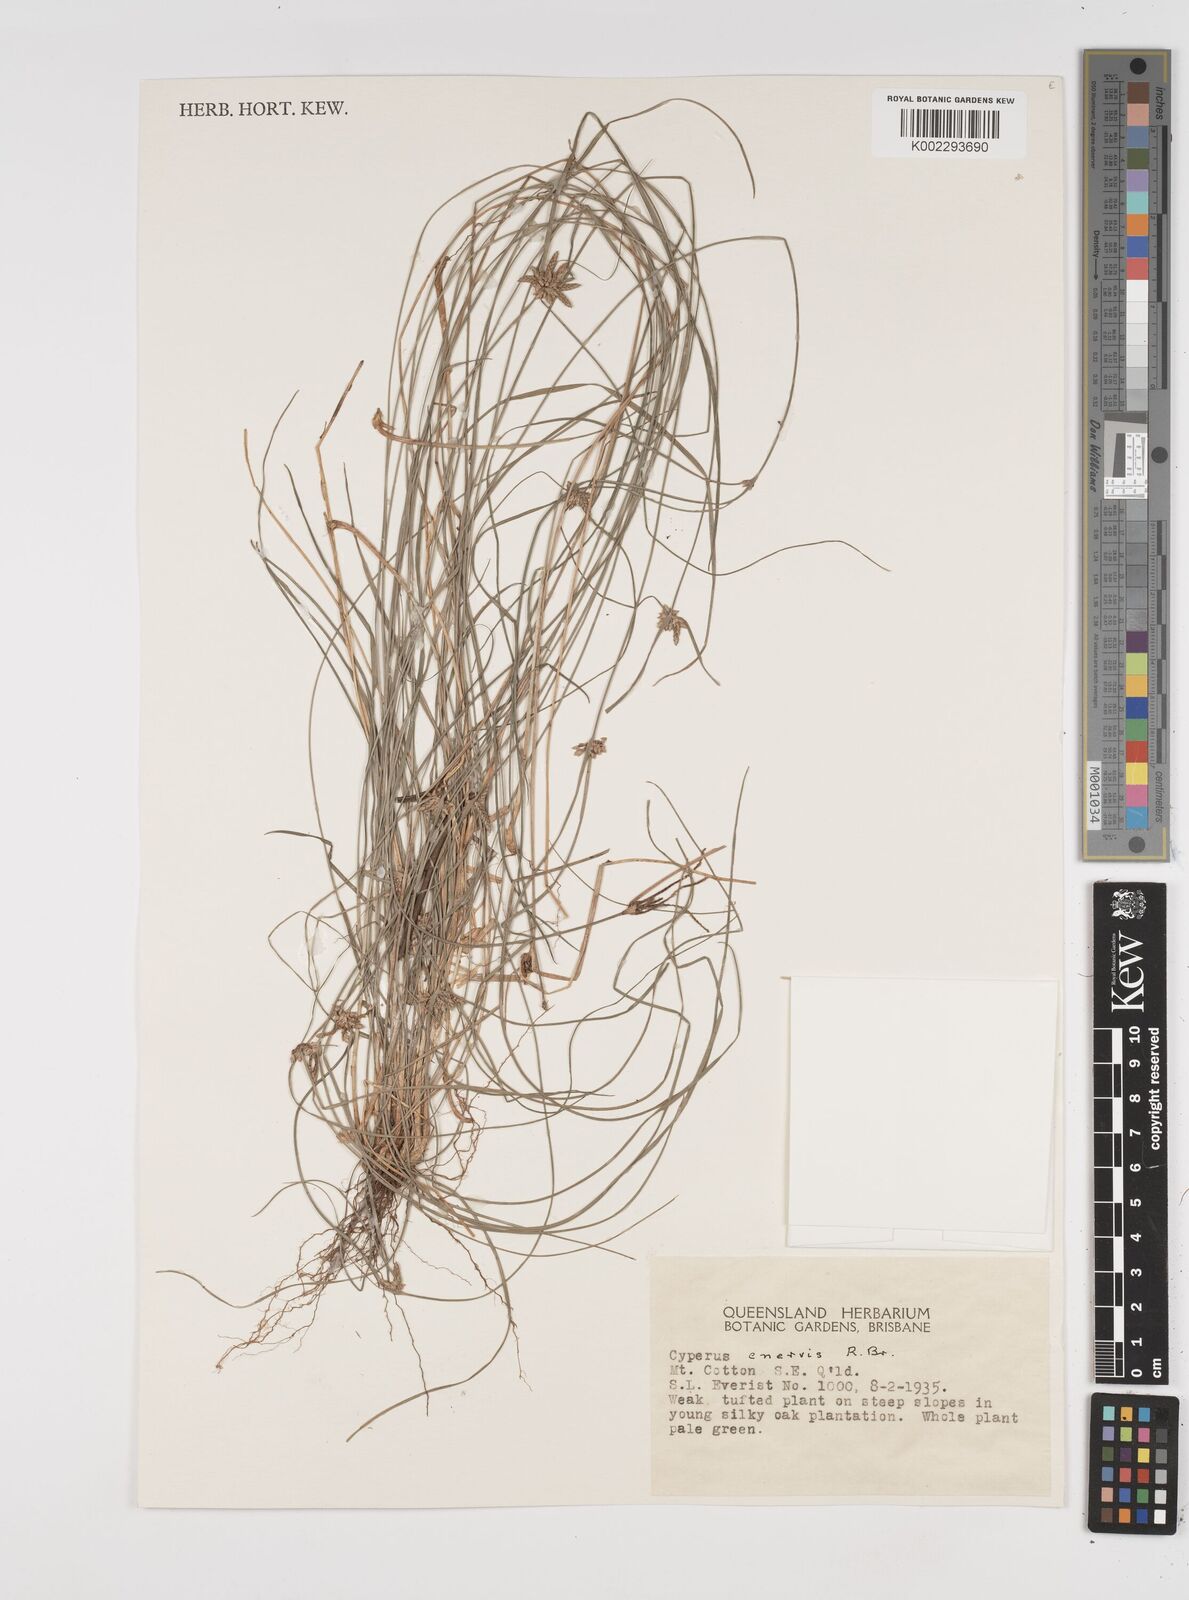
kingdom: Plantae
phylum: Tracheophyta
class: Liliopsida
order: Poales
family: Cyperaceae
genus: Cyperus
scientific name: Cyperus enervis
